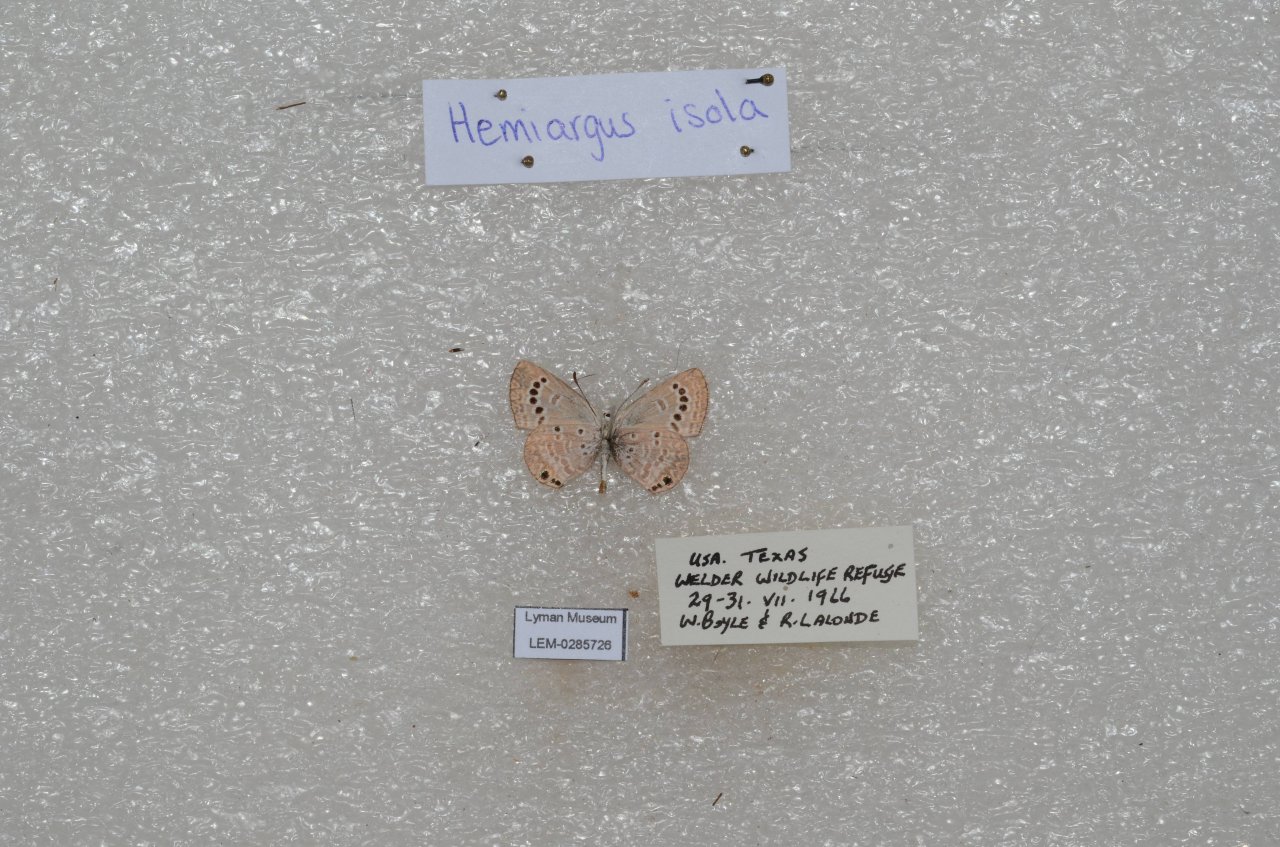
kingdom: Animalia
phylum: Arthropoda
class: Insecta
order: Lepidoptera
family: Lycaenidae
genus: Echinargus
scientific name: Echinargus isola
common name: Reakirt's Blue
